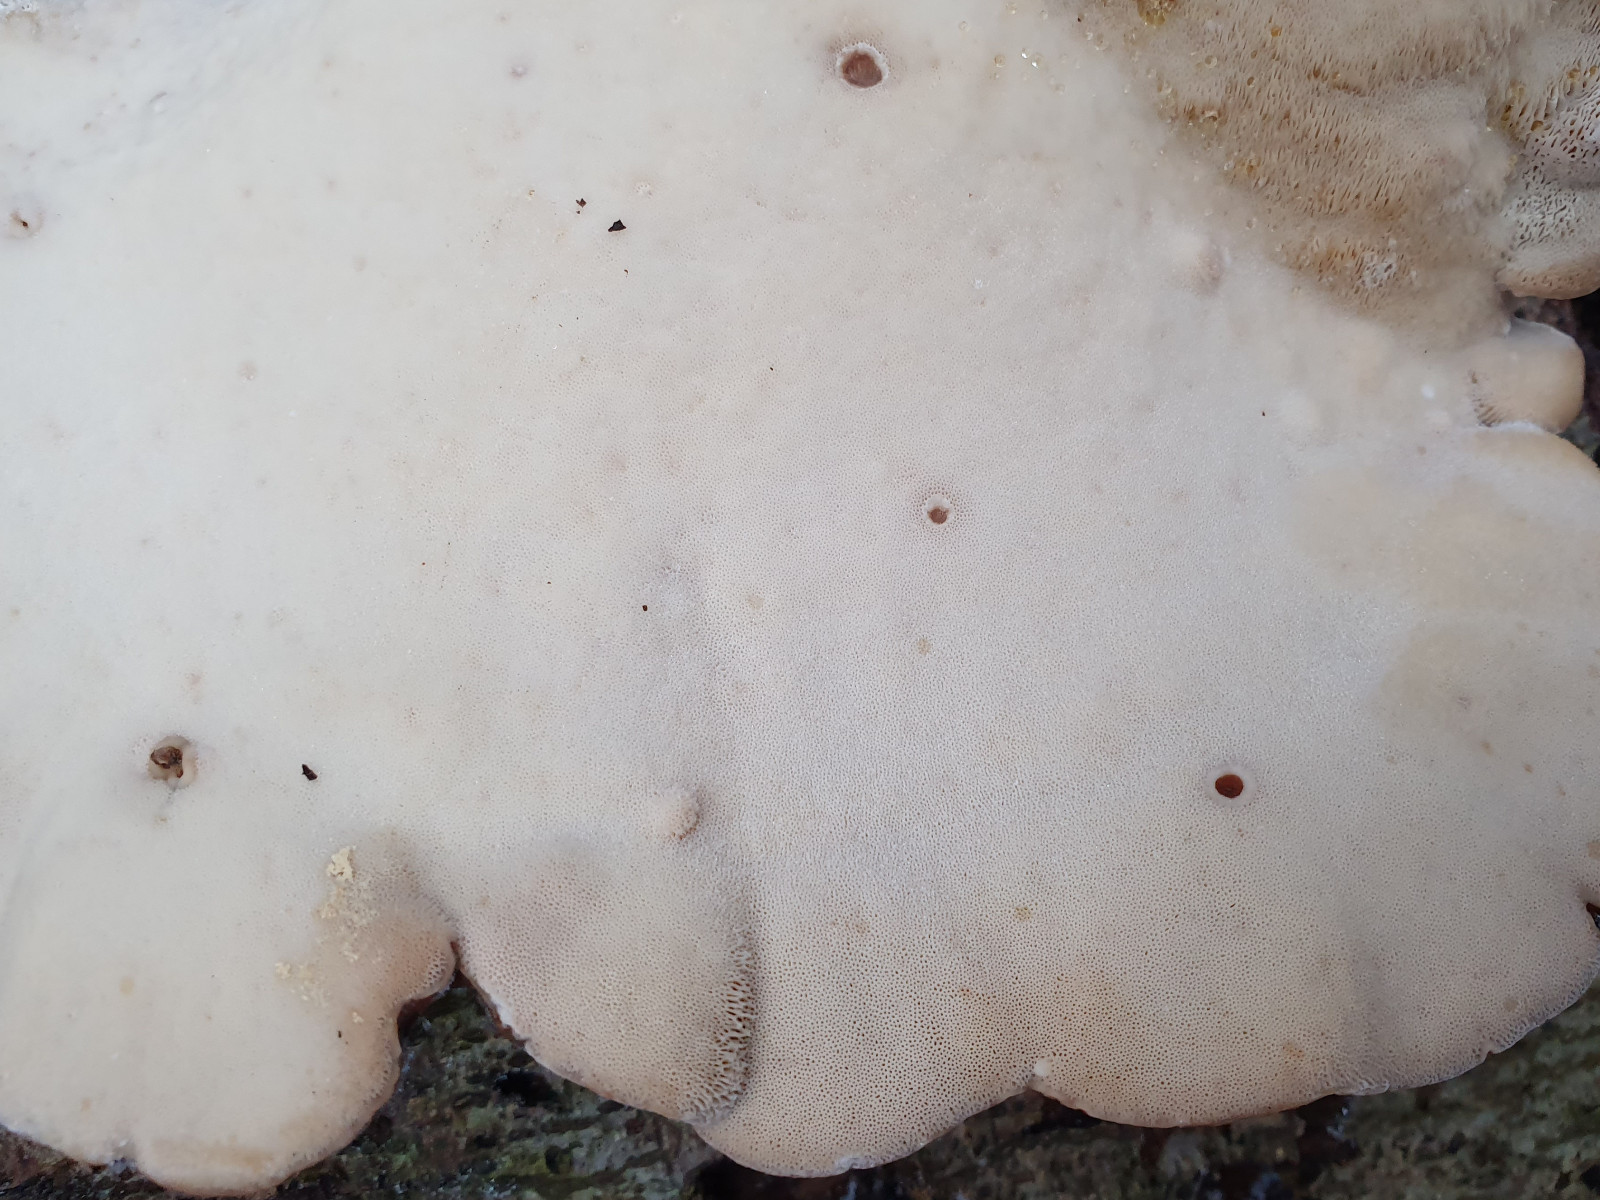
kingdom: Fungi
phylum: Basidiomycota
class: Agaricomycetes
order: Polyporales
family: Ischnodermataceae
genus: Ischnoderma
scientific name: Ischnoderma resinosum
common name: løv-tjæreporesvamp
